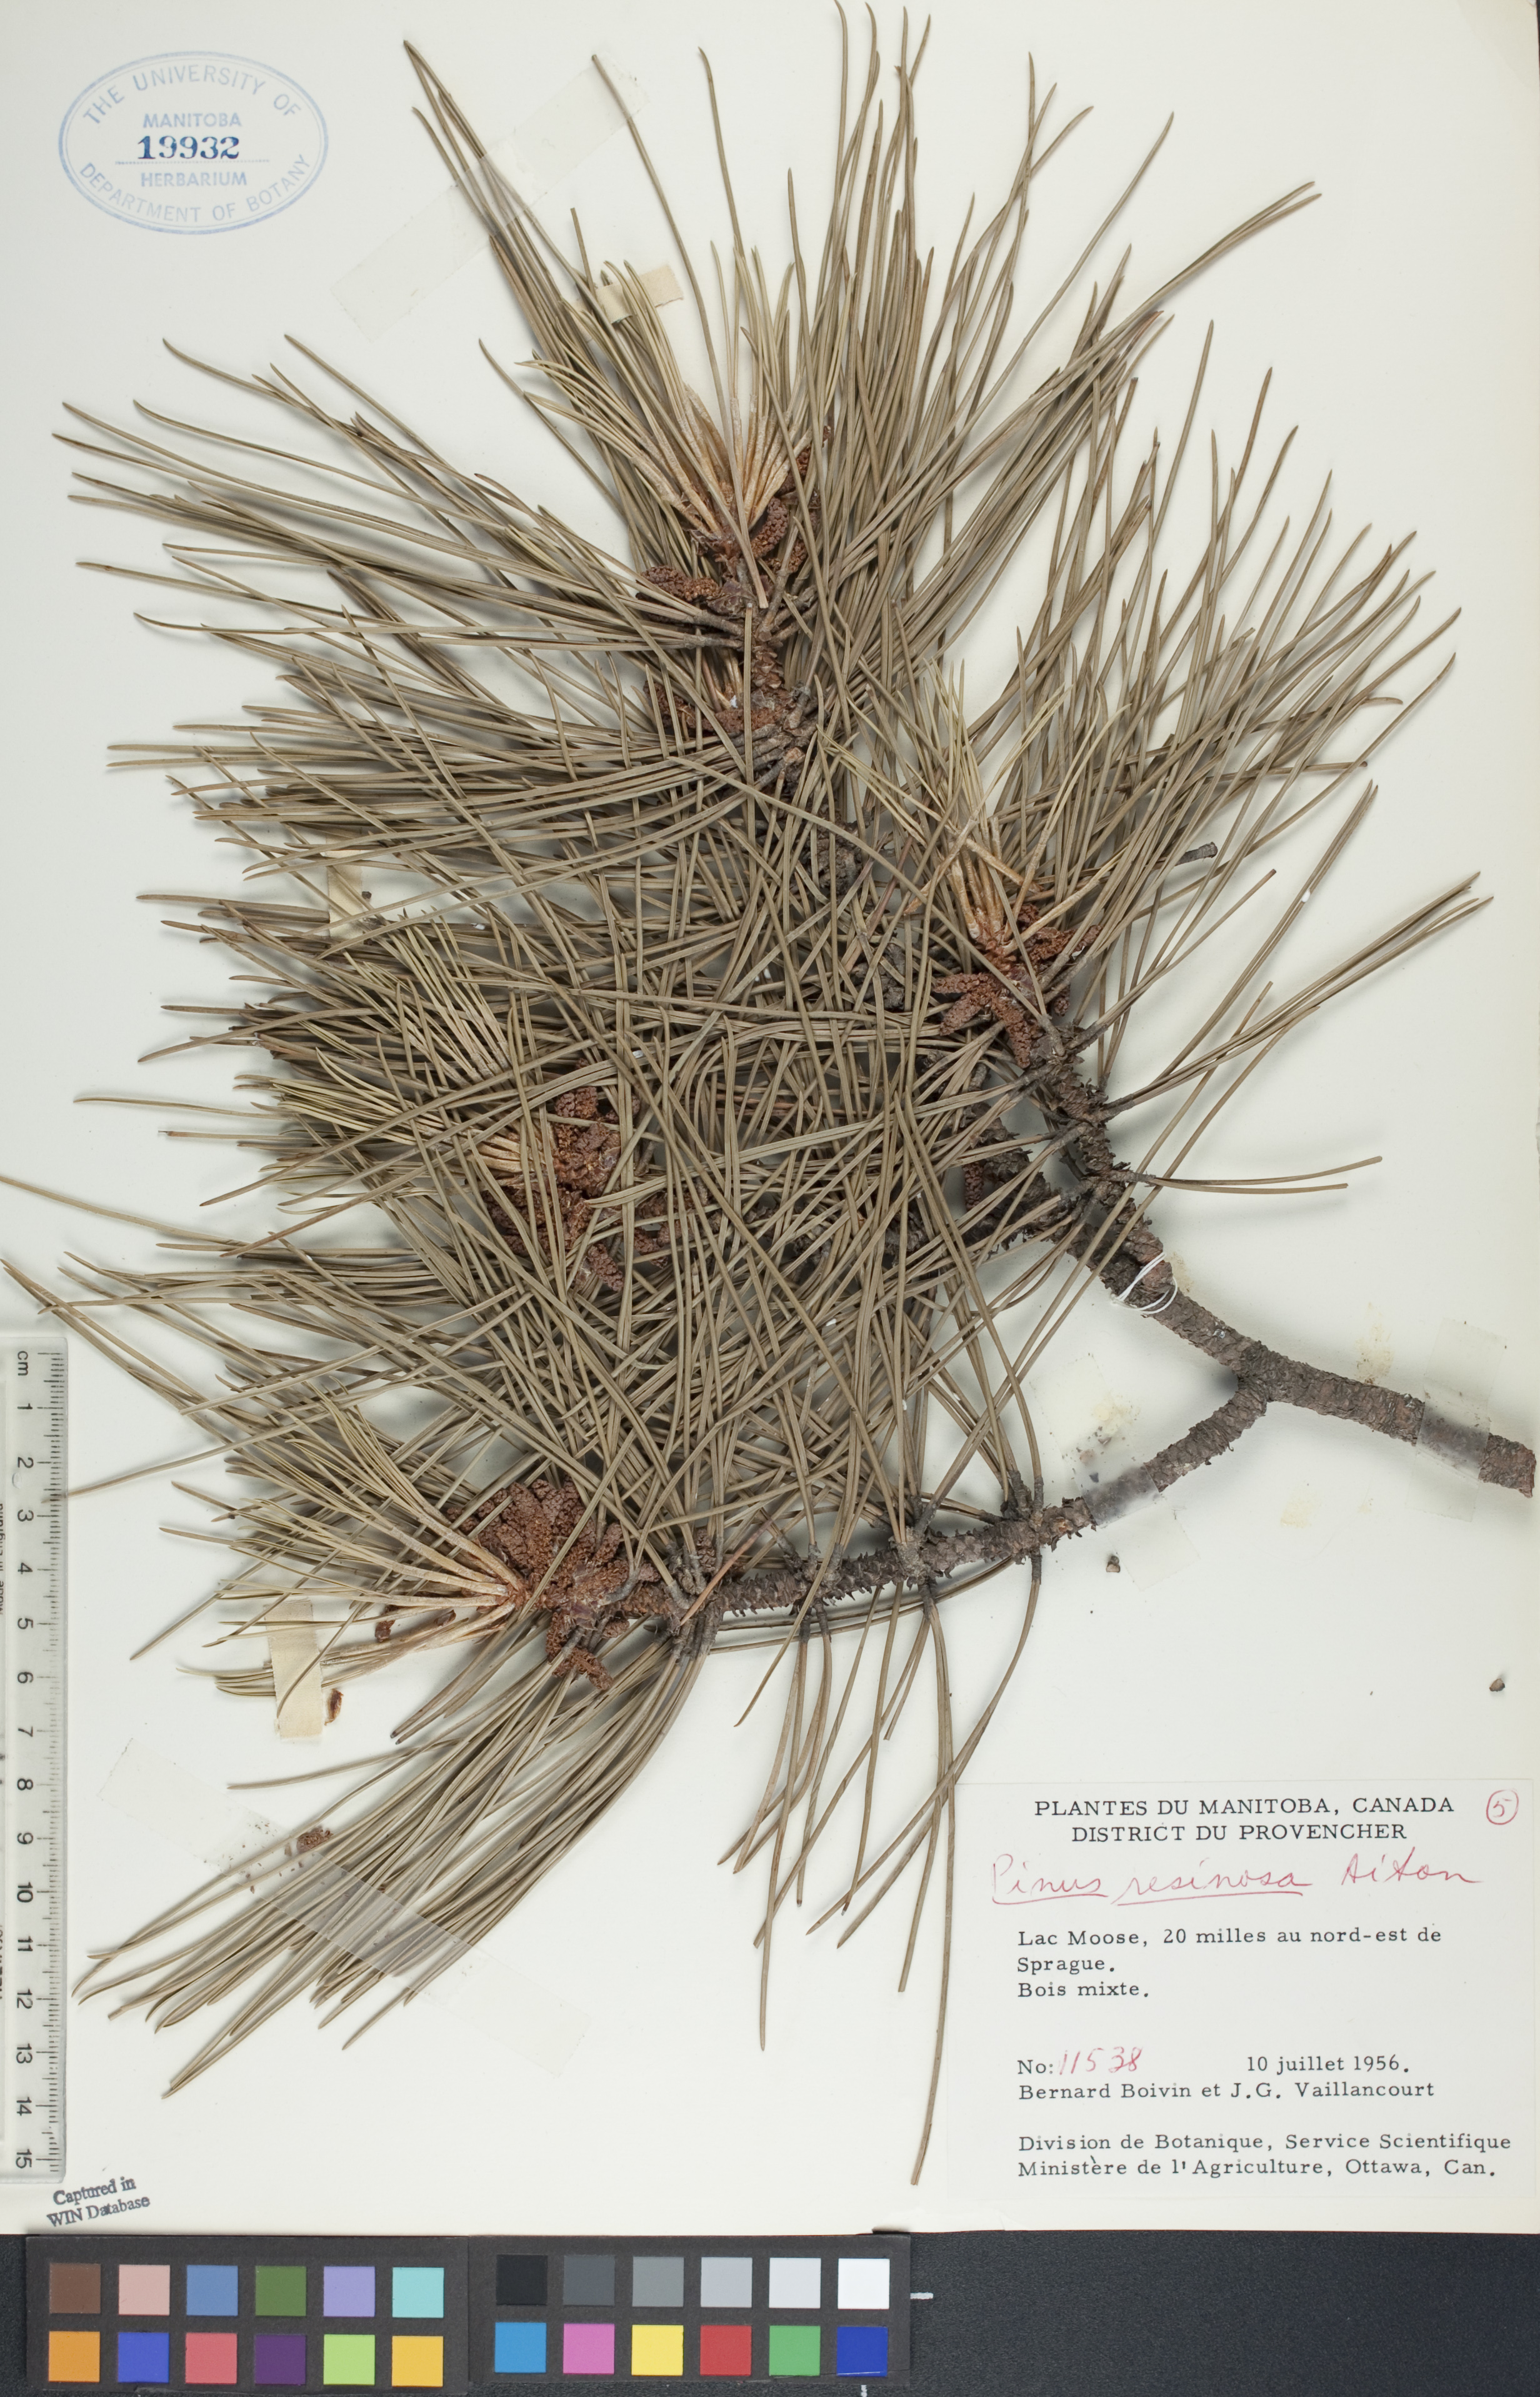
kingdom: Plantae
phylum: Tracheophyta
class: Pinopsida
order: Pinales
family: Pinaceae
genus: Pinus
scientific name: Pinus resinosa
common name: Norway pine
